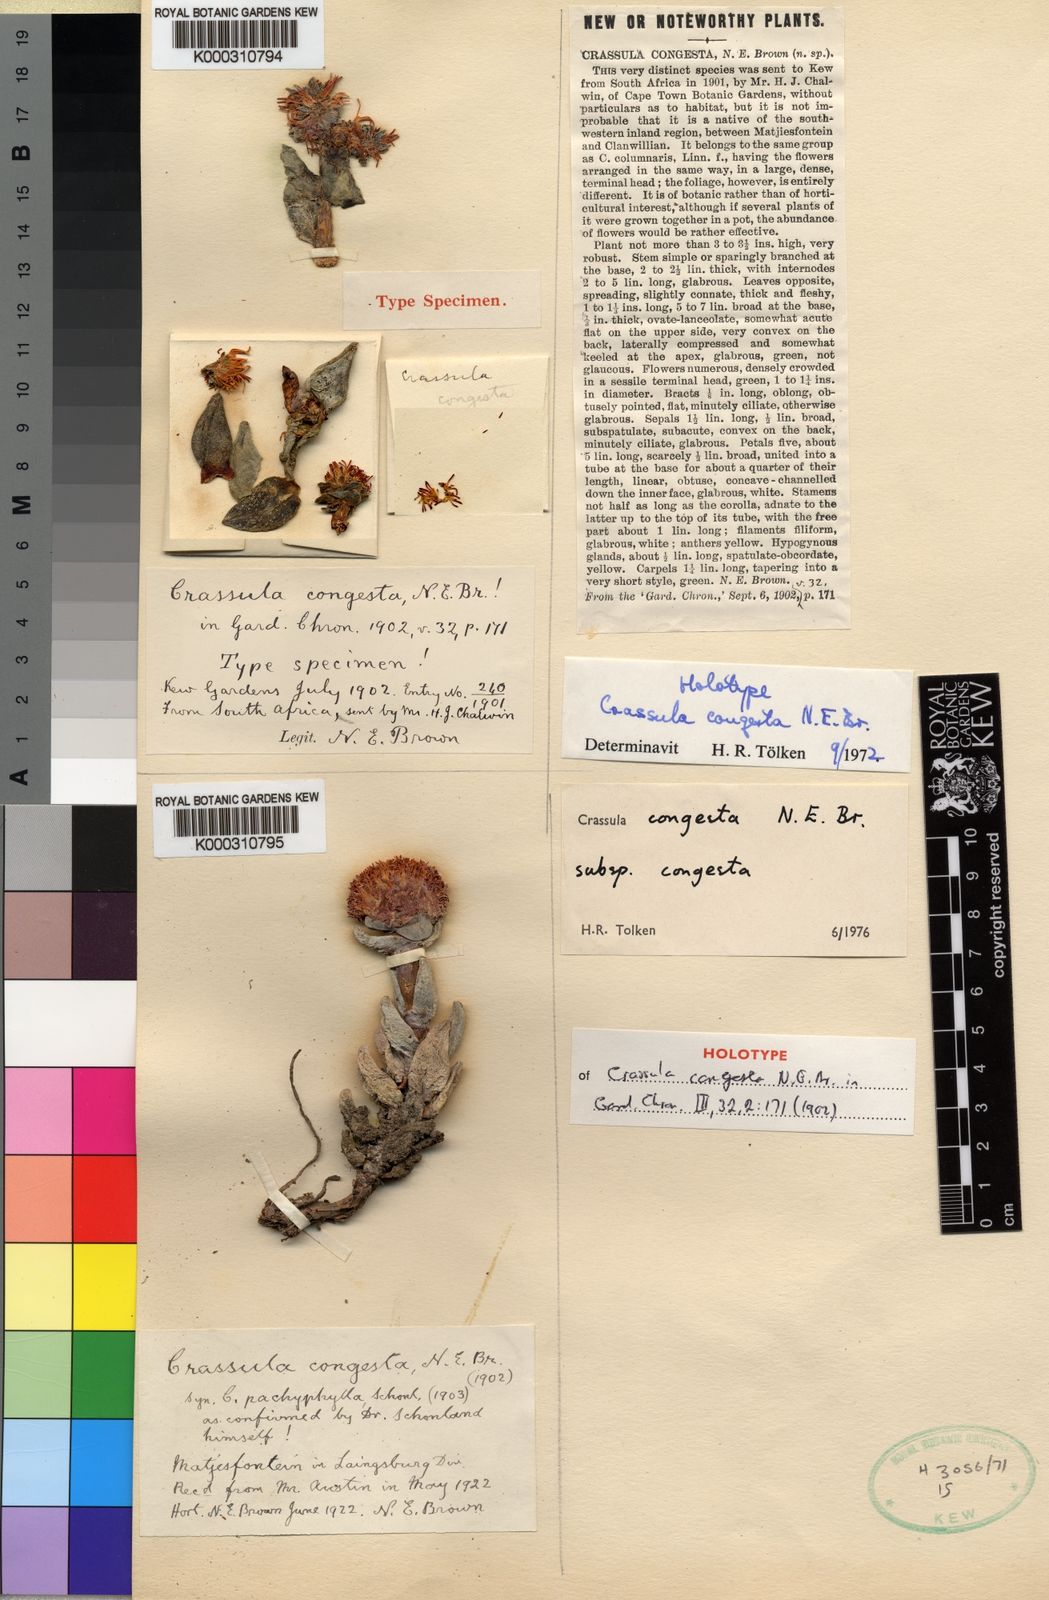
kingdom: Plantae
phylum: Tracheophyta
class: Magnoliopsida
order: Saxifragales
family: Crassulaceae
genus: Crassula
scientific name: Crassula congesta
